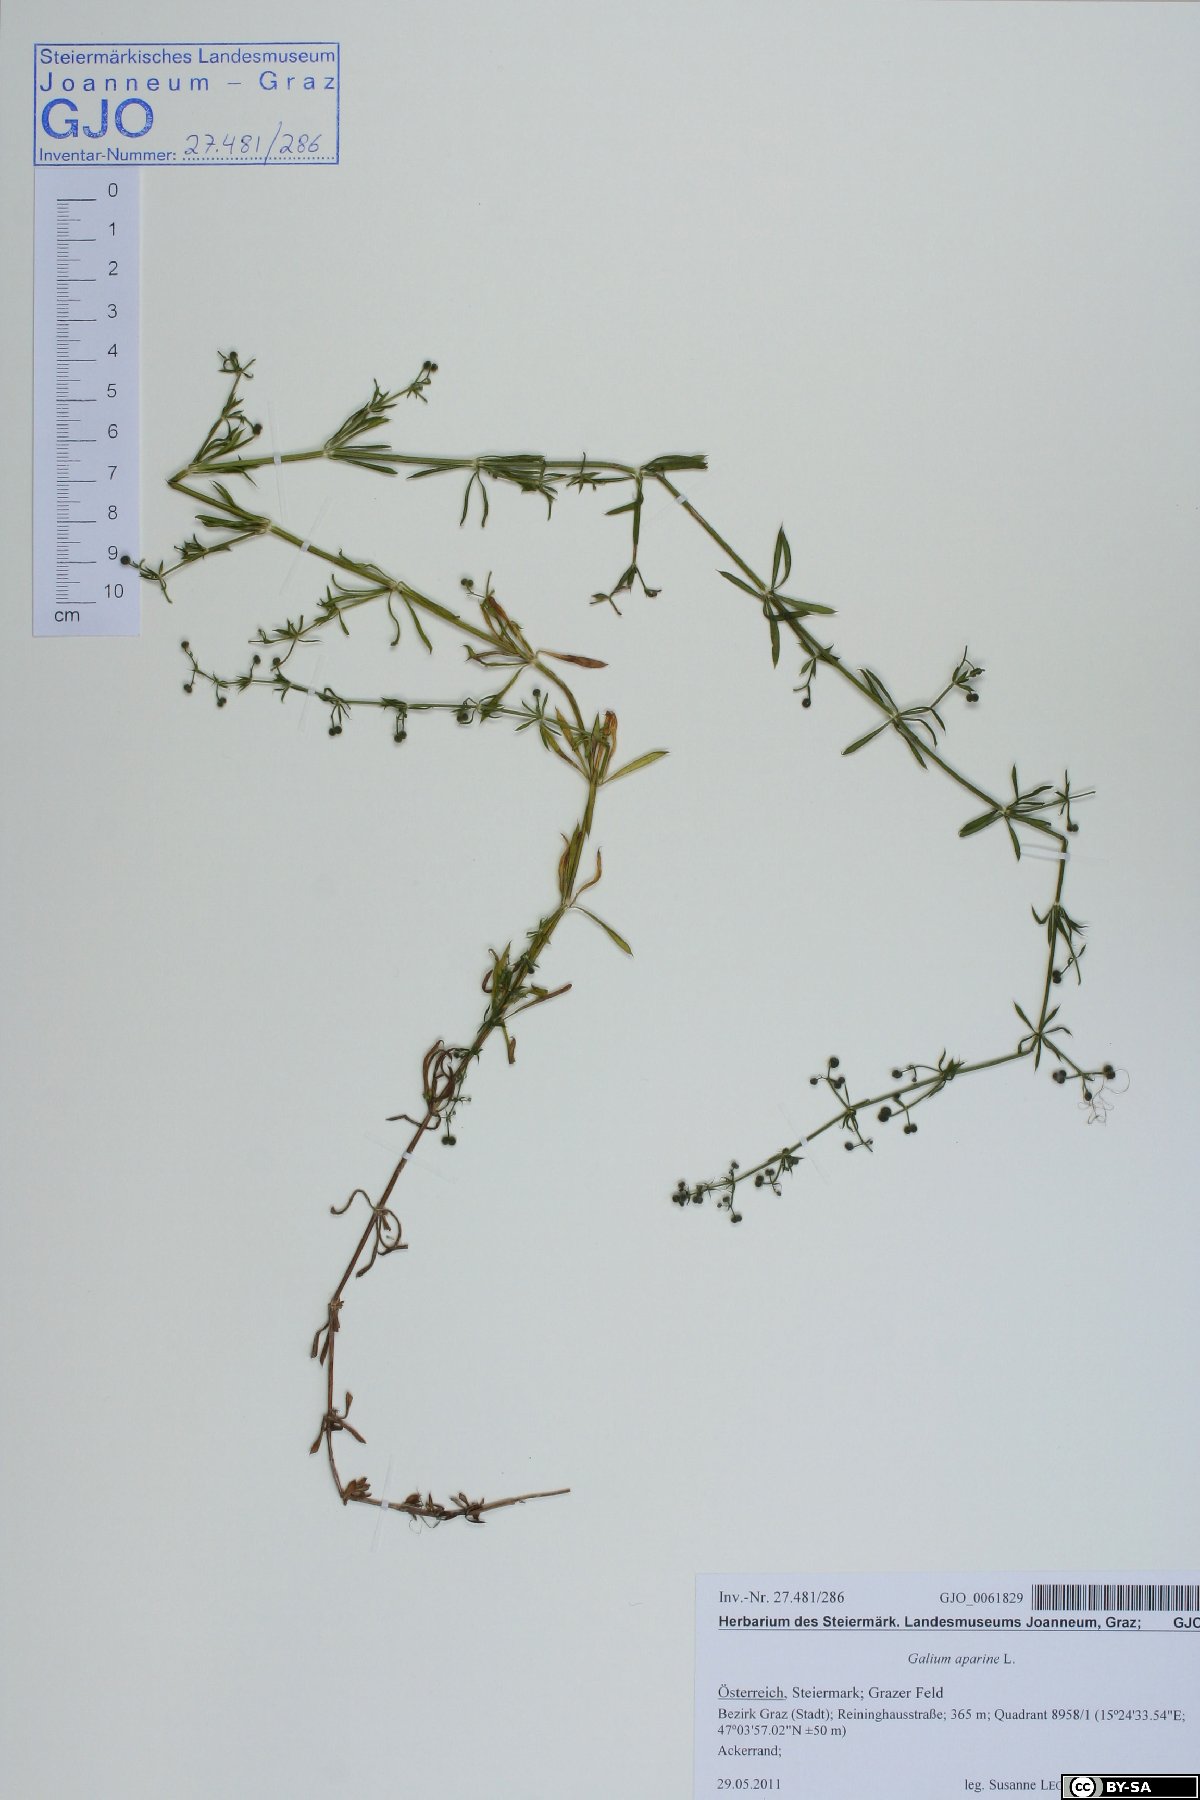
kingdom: Plantae
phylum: Tracheophyta
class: Magnoliopsida
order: Gentianales
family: Rubiaceae
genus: Galium
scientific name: Galium aparine
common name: Cleavers
